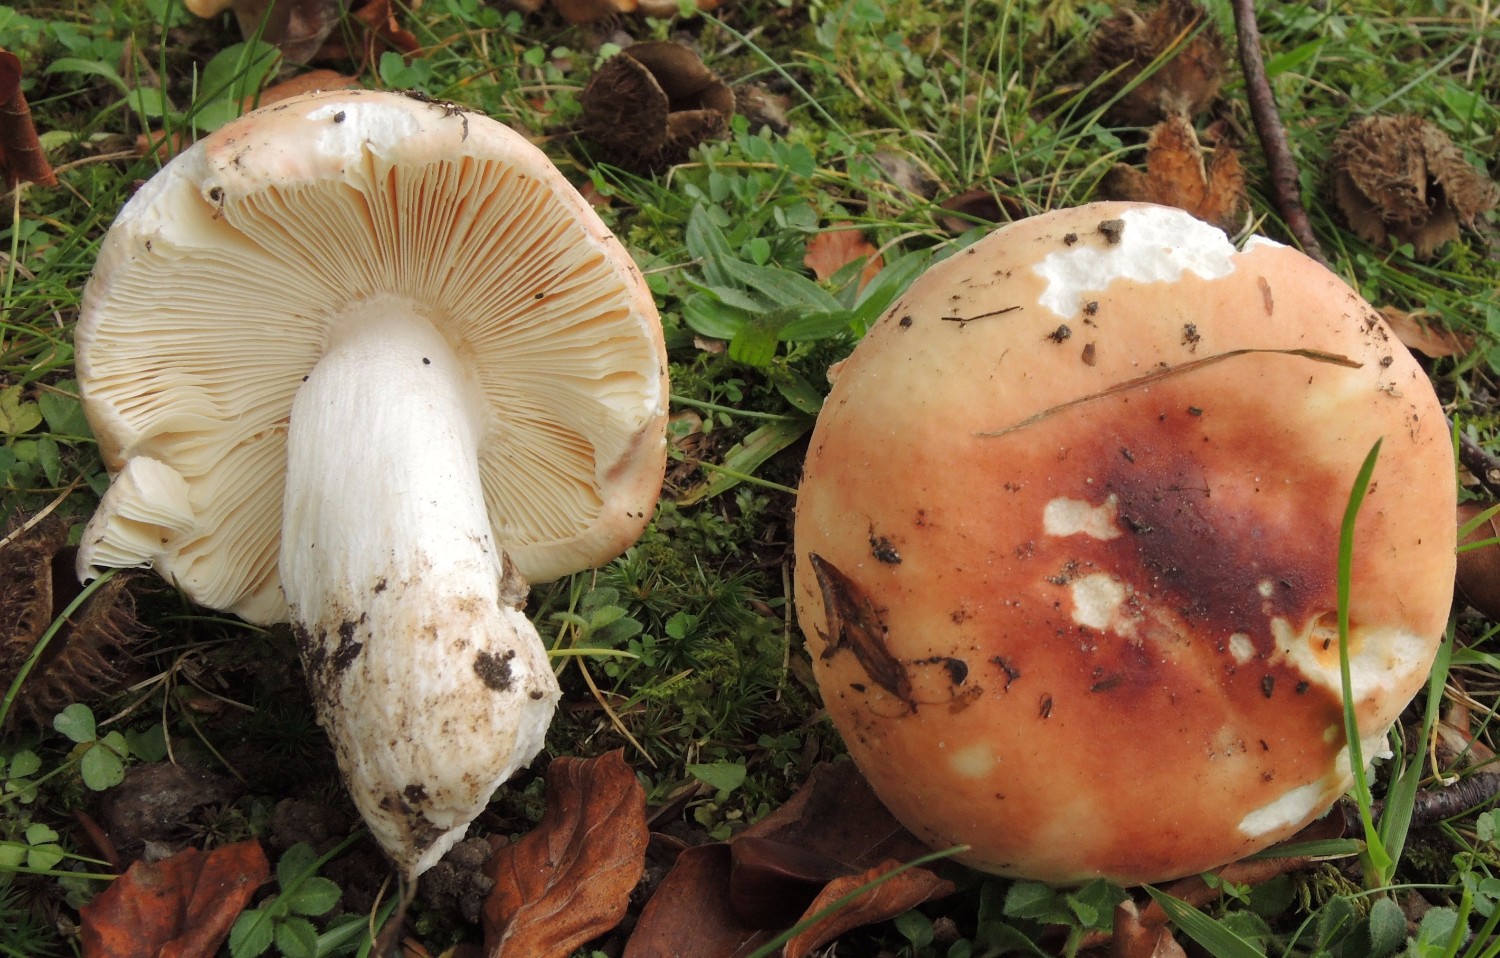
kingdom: Fungi
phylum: Basidiomycota
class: Agaricomycetes
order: Russulales
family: Russulaceae
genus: Russula
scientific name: Russula aurora
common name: rosa skørhat
